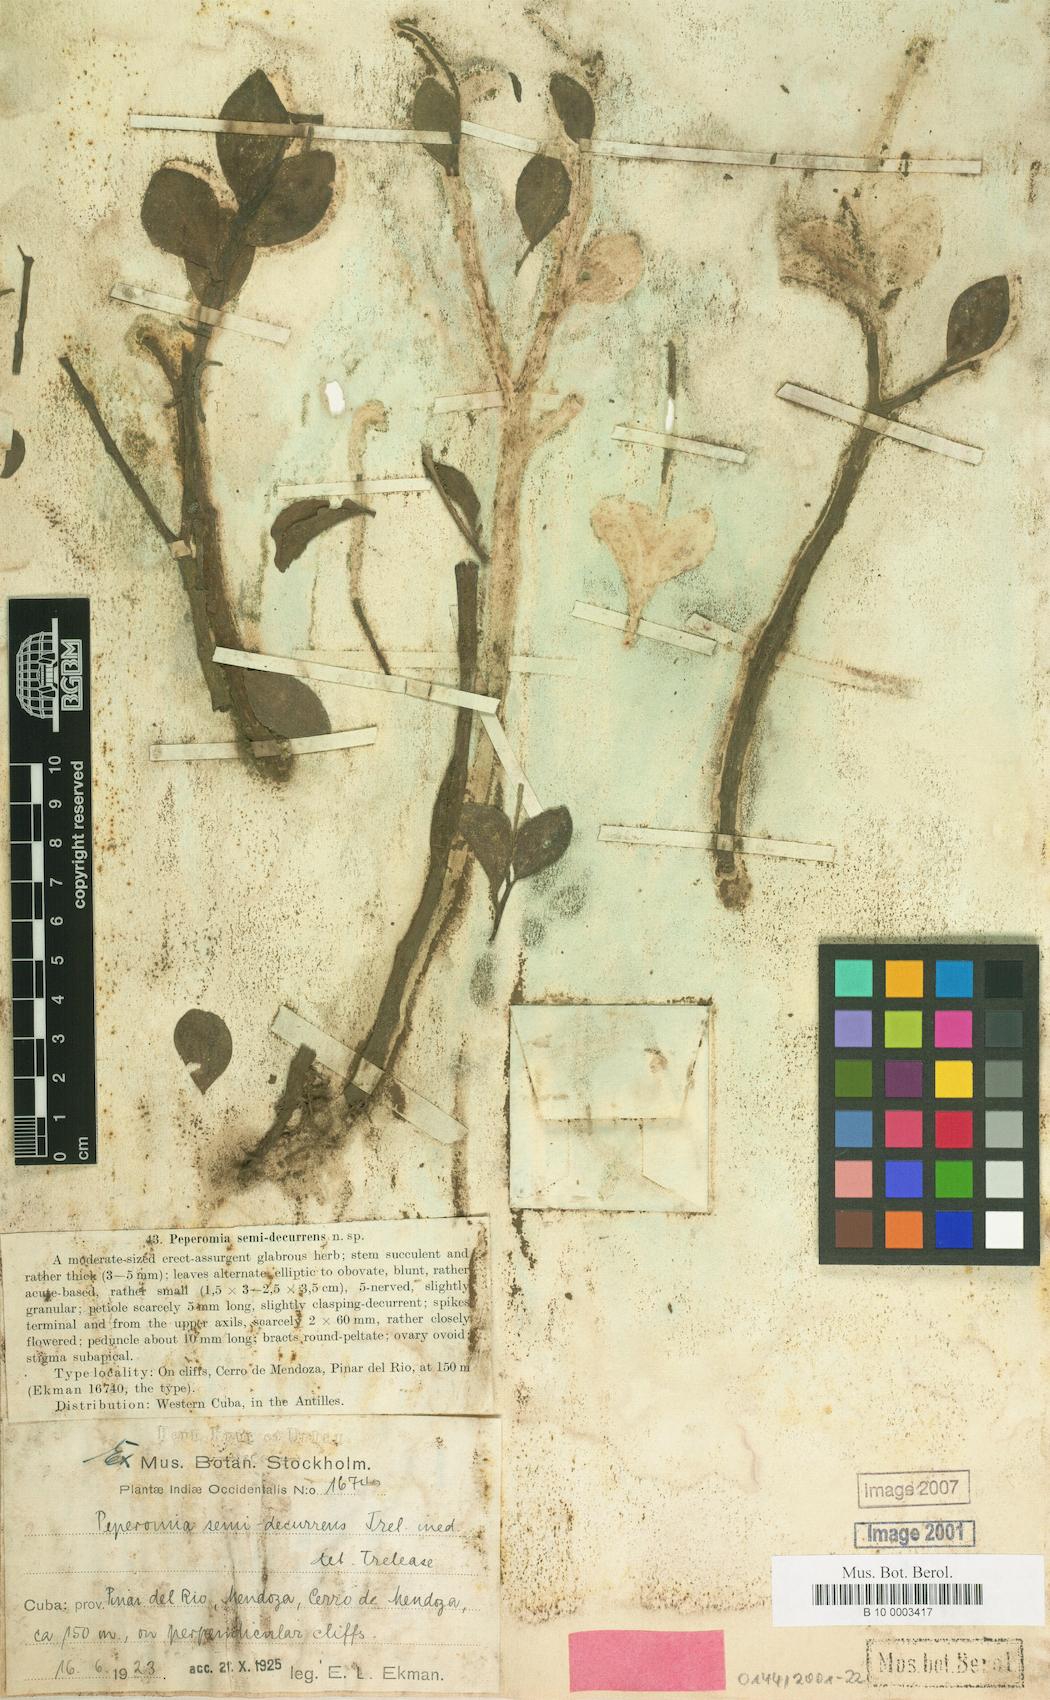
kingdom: Plantae
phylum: Tracheophyta
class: Magnoliopsida
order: Piperales
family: Piperaceae
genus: Peperomia
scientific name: Peperomia erythropremna
